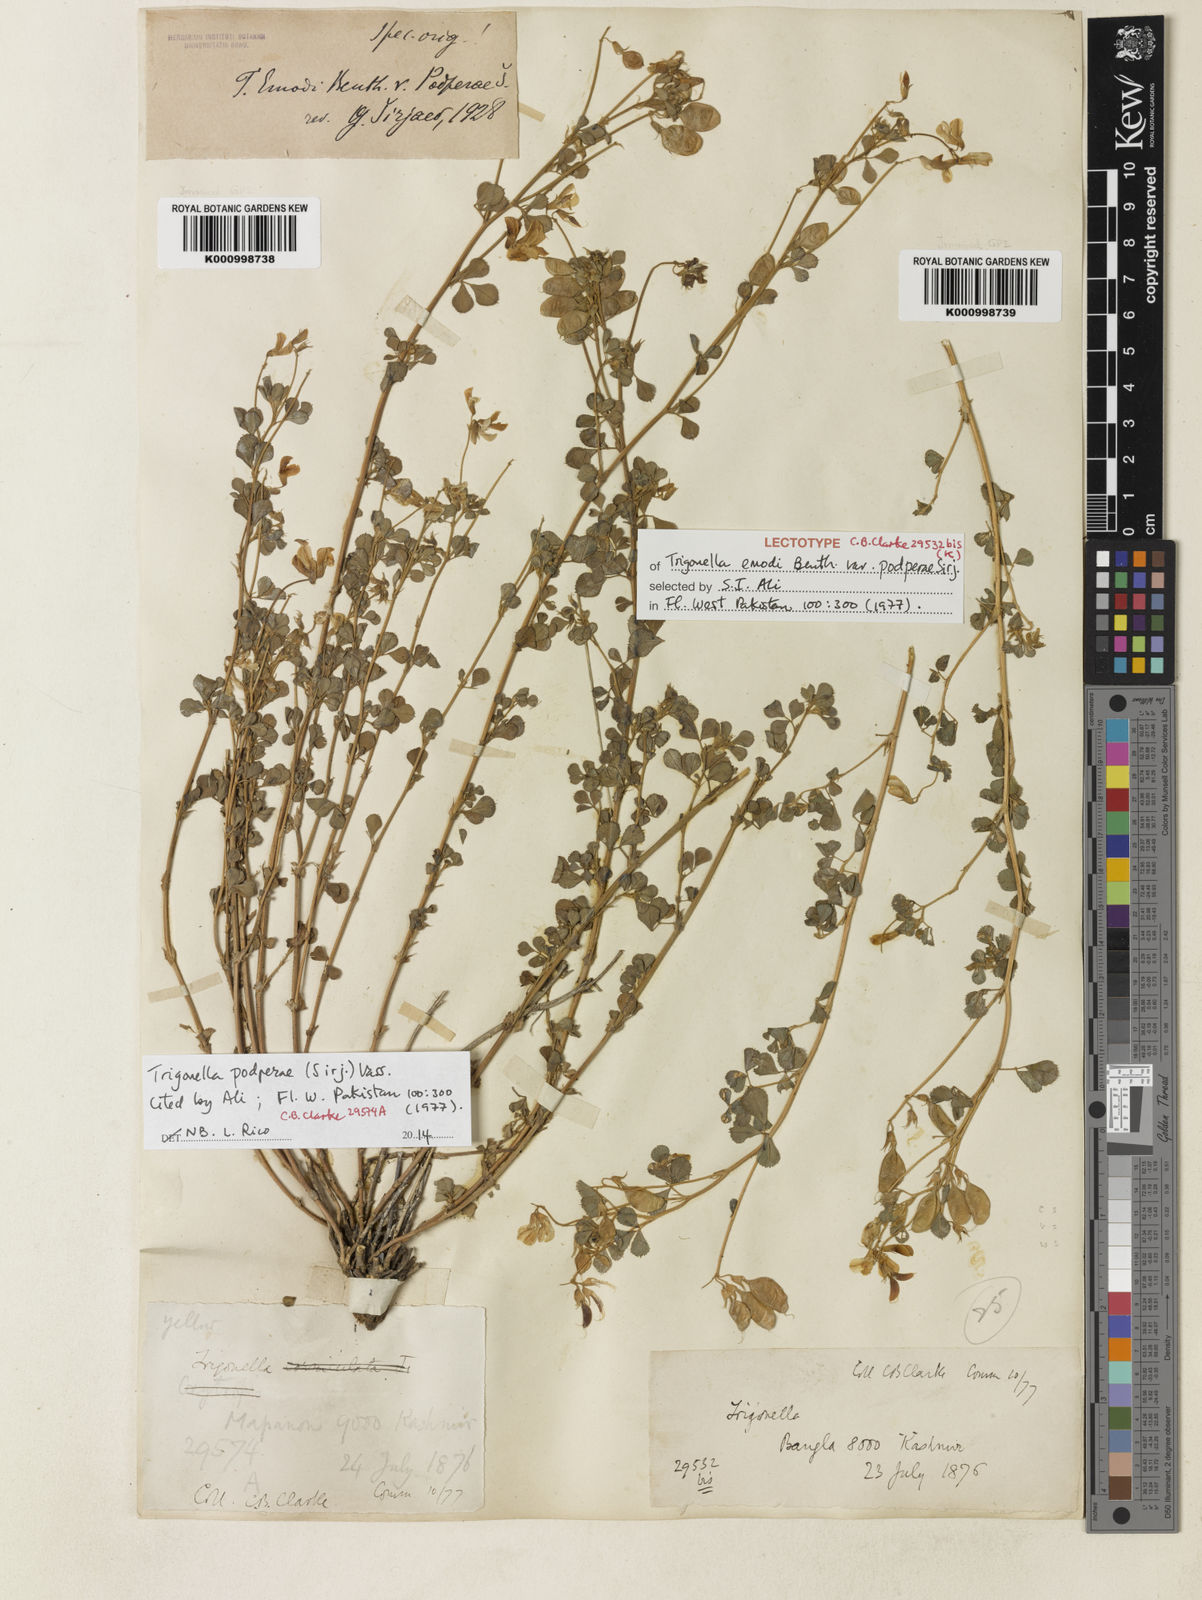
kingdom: Plantae
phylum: Tracheophyta
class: Magnoliopsida
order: Fabales
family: Fabaceae
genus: Trigonella
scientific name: Trigonella podperae
